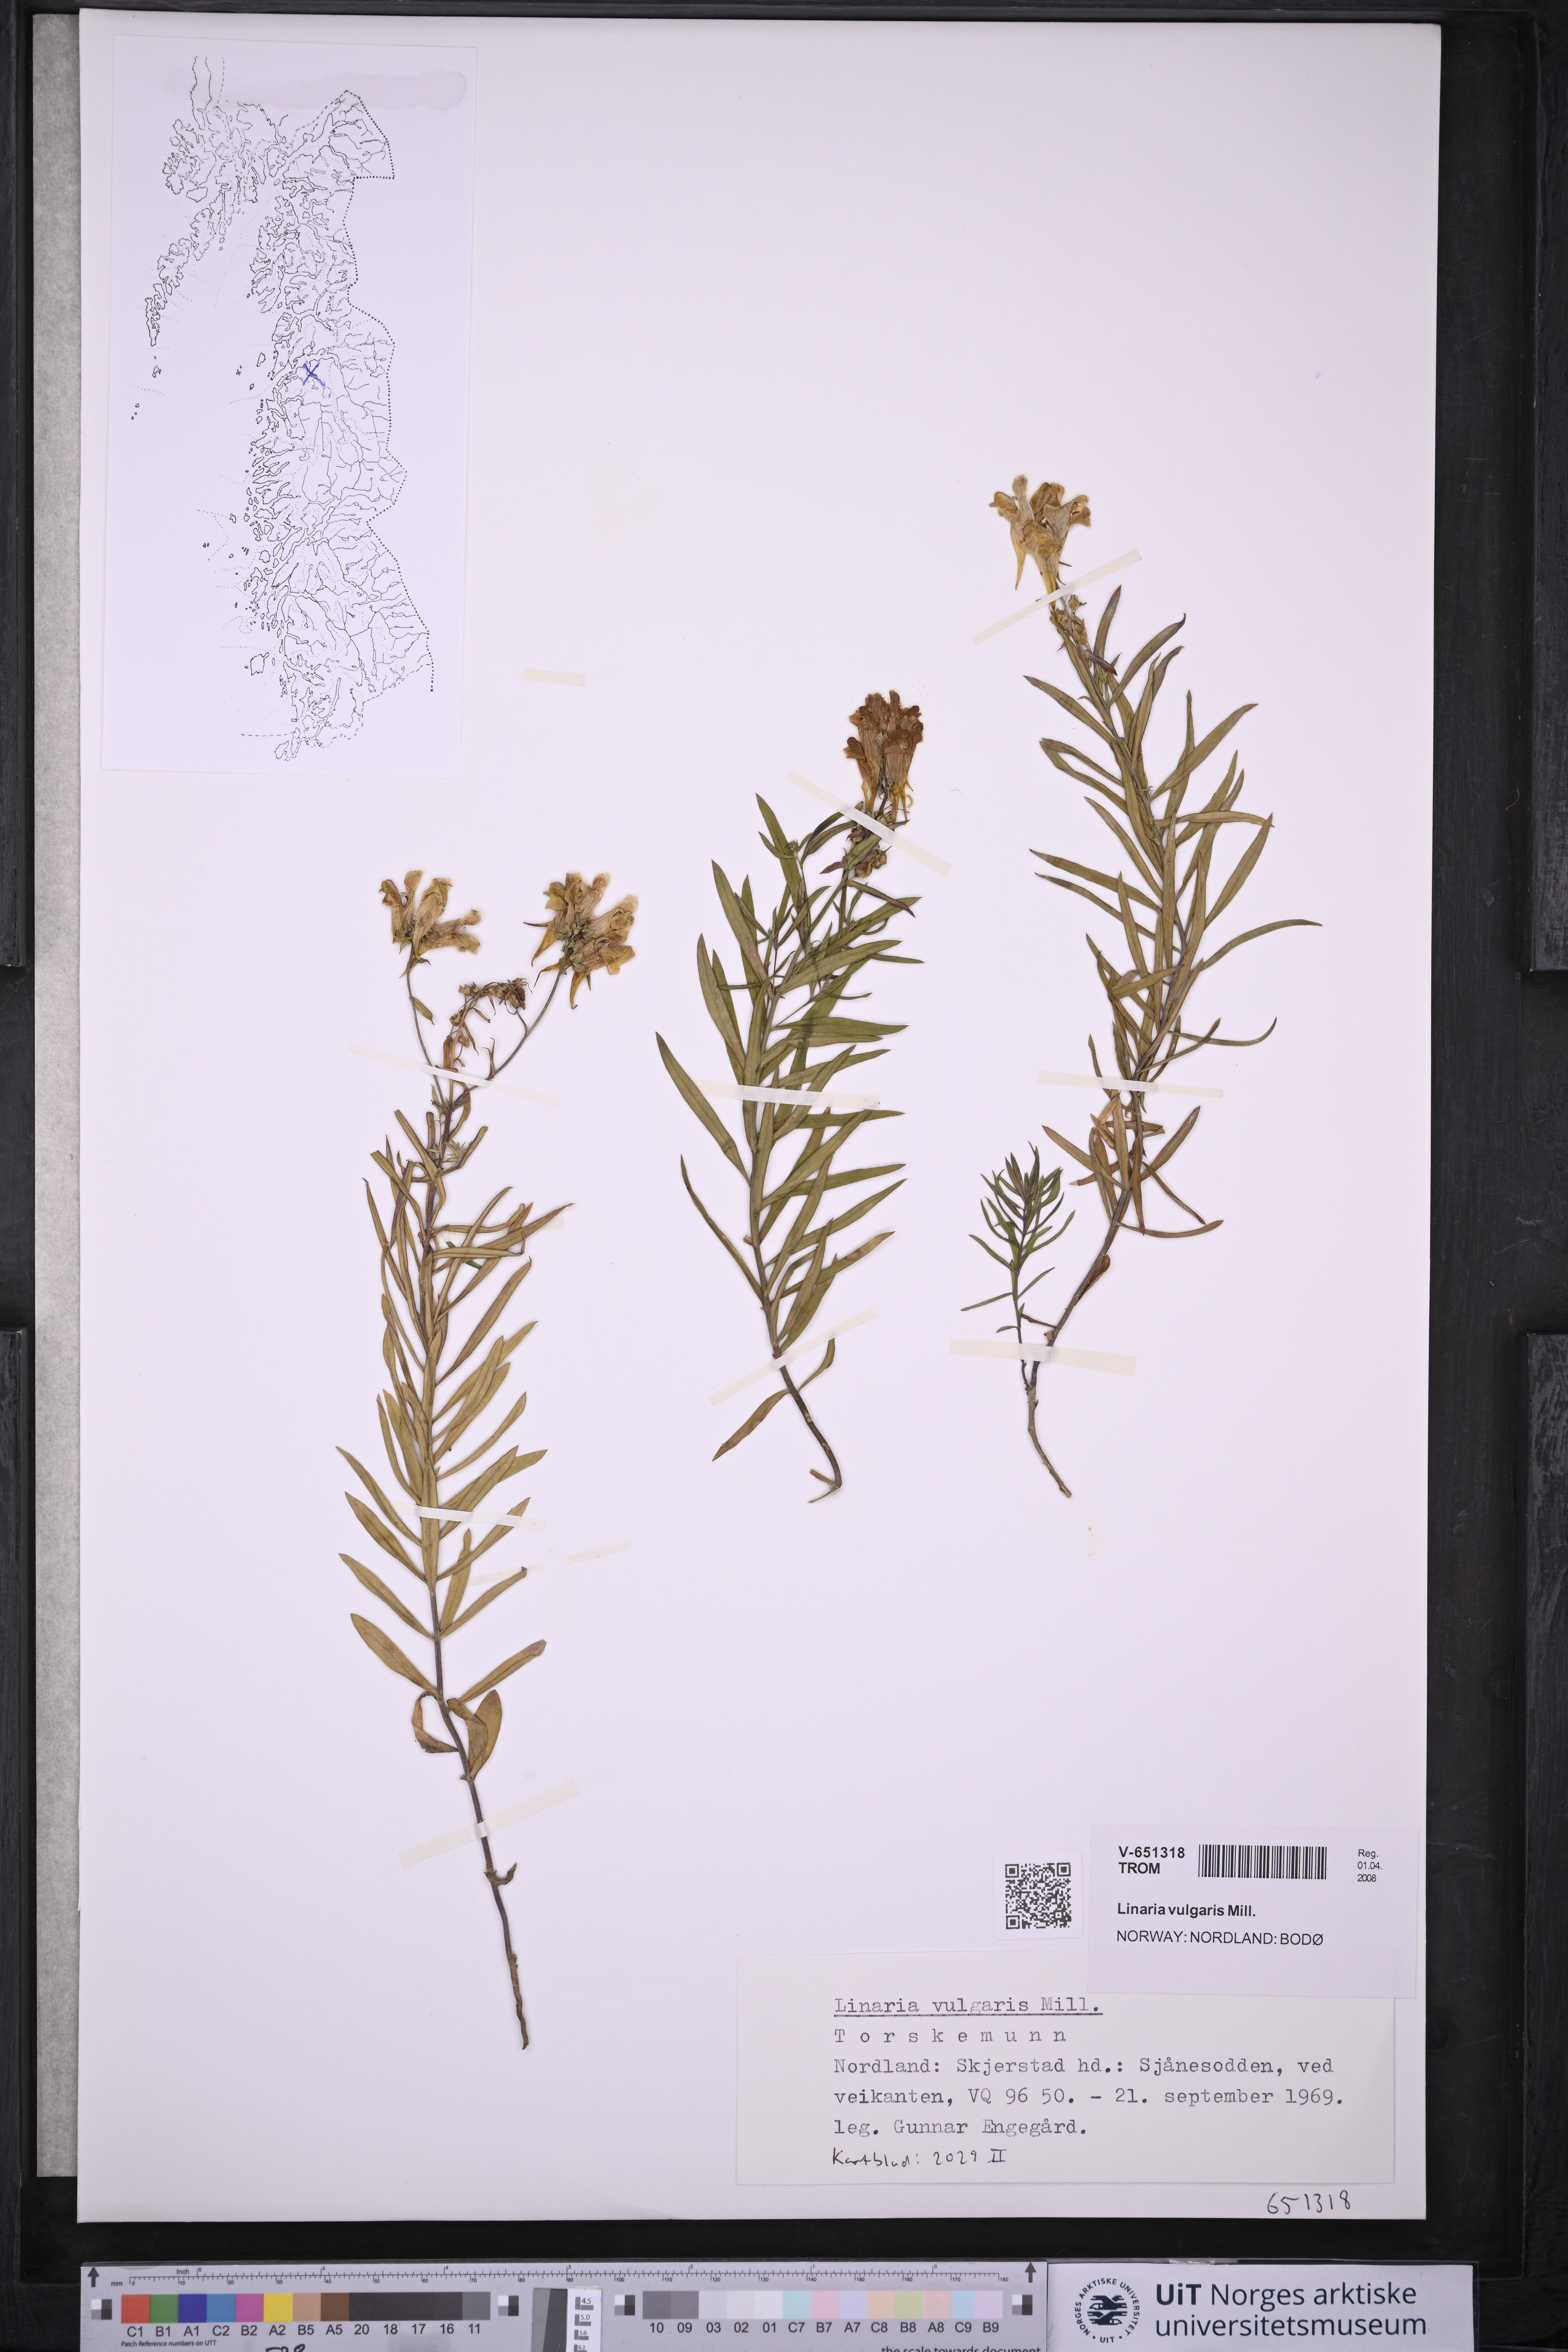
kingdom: Plantae
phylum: Tracheophyta
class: Magnoliopsida
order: Lamiales
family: Plantaginaceae
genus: Linaria
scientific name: Linaria vulgaris
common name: Butter and eggs
